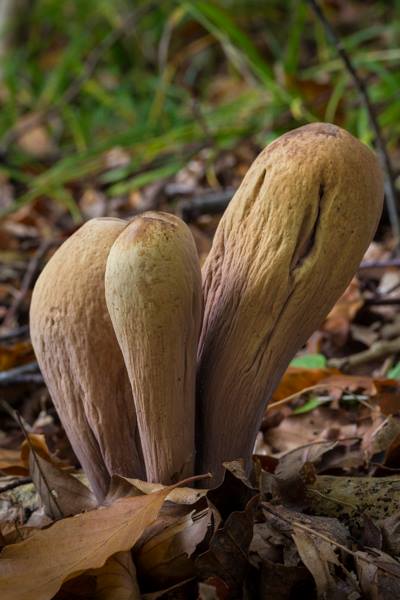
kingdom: Fungi
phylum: Basidiomycota
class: Agaricomycetes
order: Gomphales
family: Clavariadelphaceae
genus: Clavariadelphus
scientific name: Clavariadelphus pistillaris
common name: herkules-kæmpekølle
